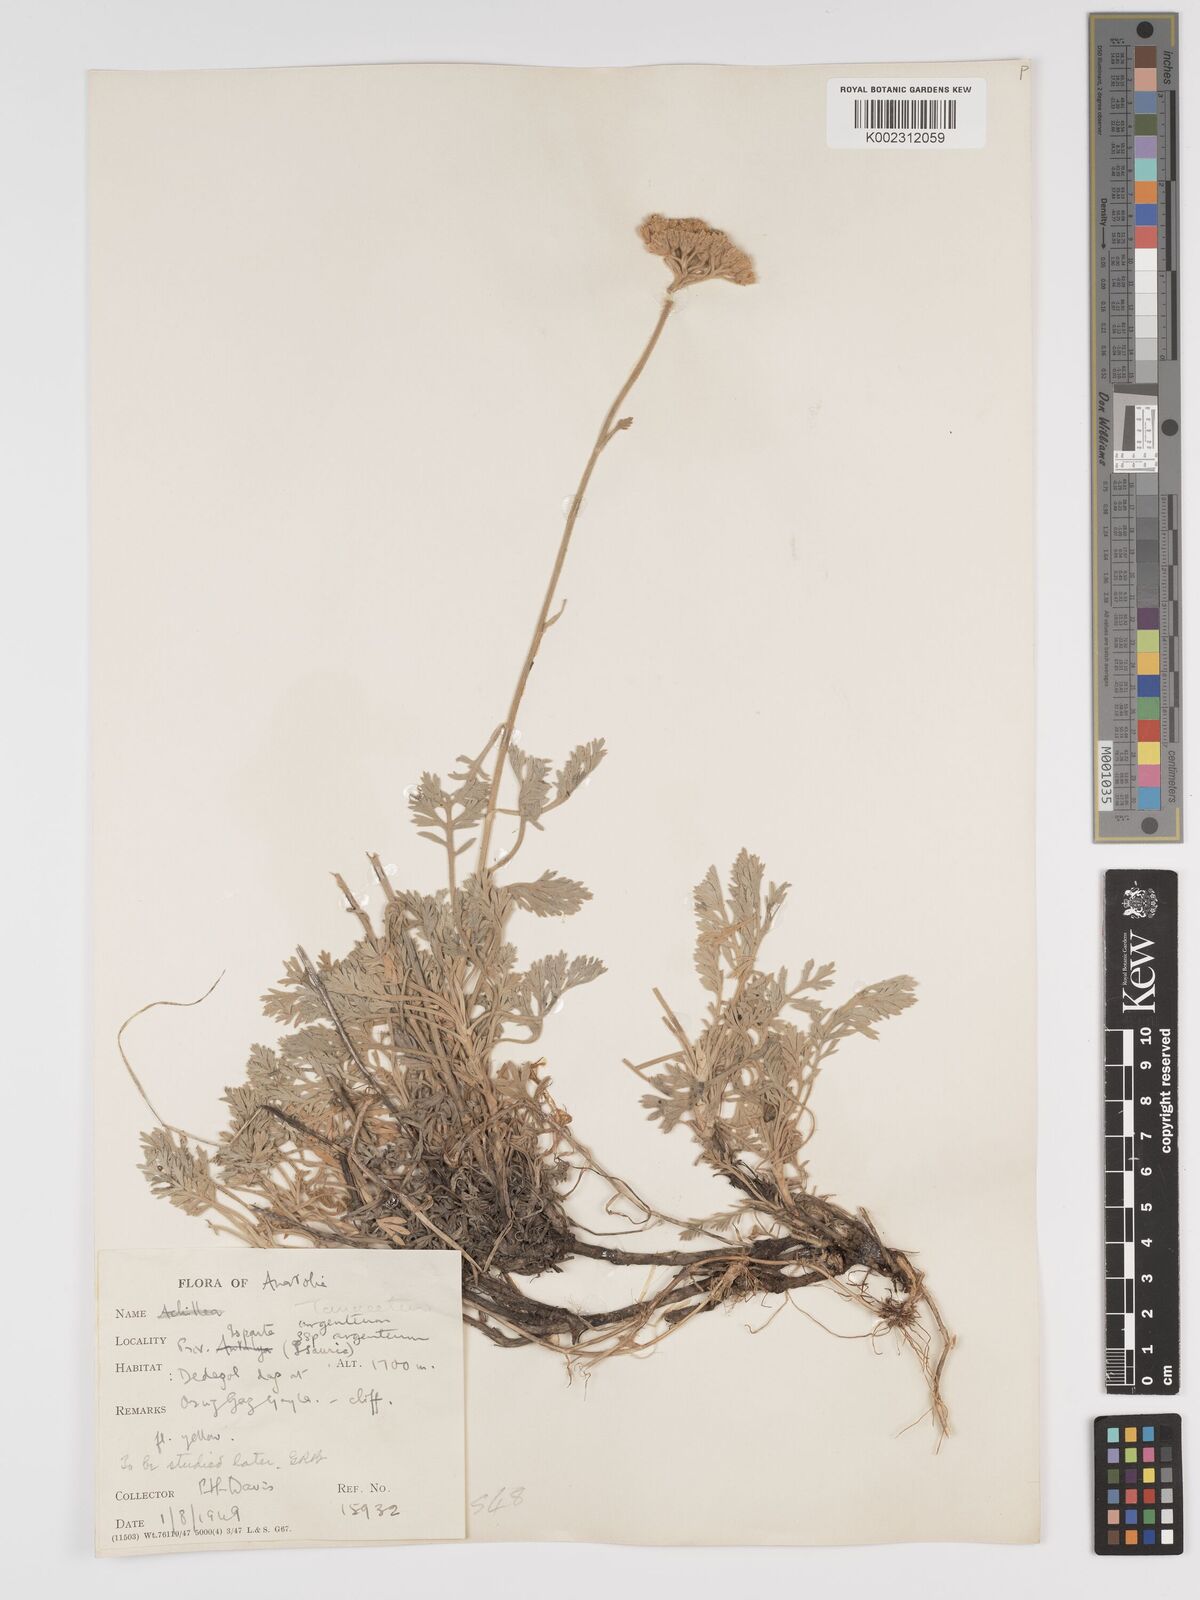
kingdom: Plantae
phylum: Tracheophyta
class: Magnoliopsida
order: Asterales
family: Asteraceae
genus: Tanacetum
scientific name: Tanacetum argenteum
